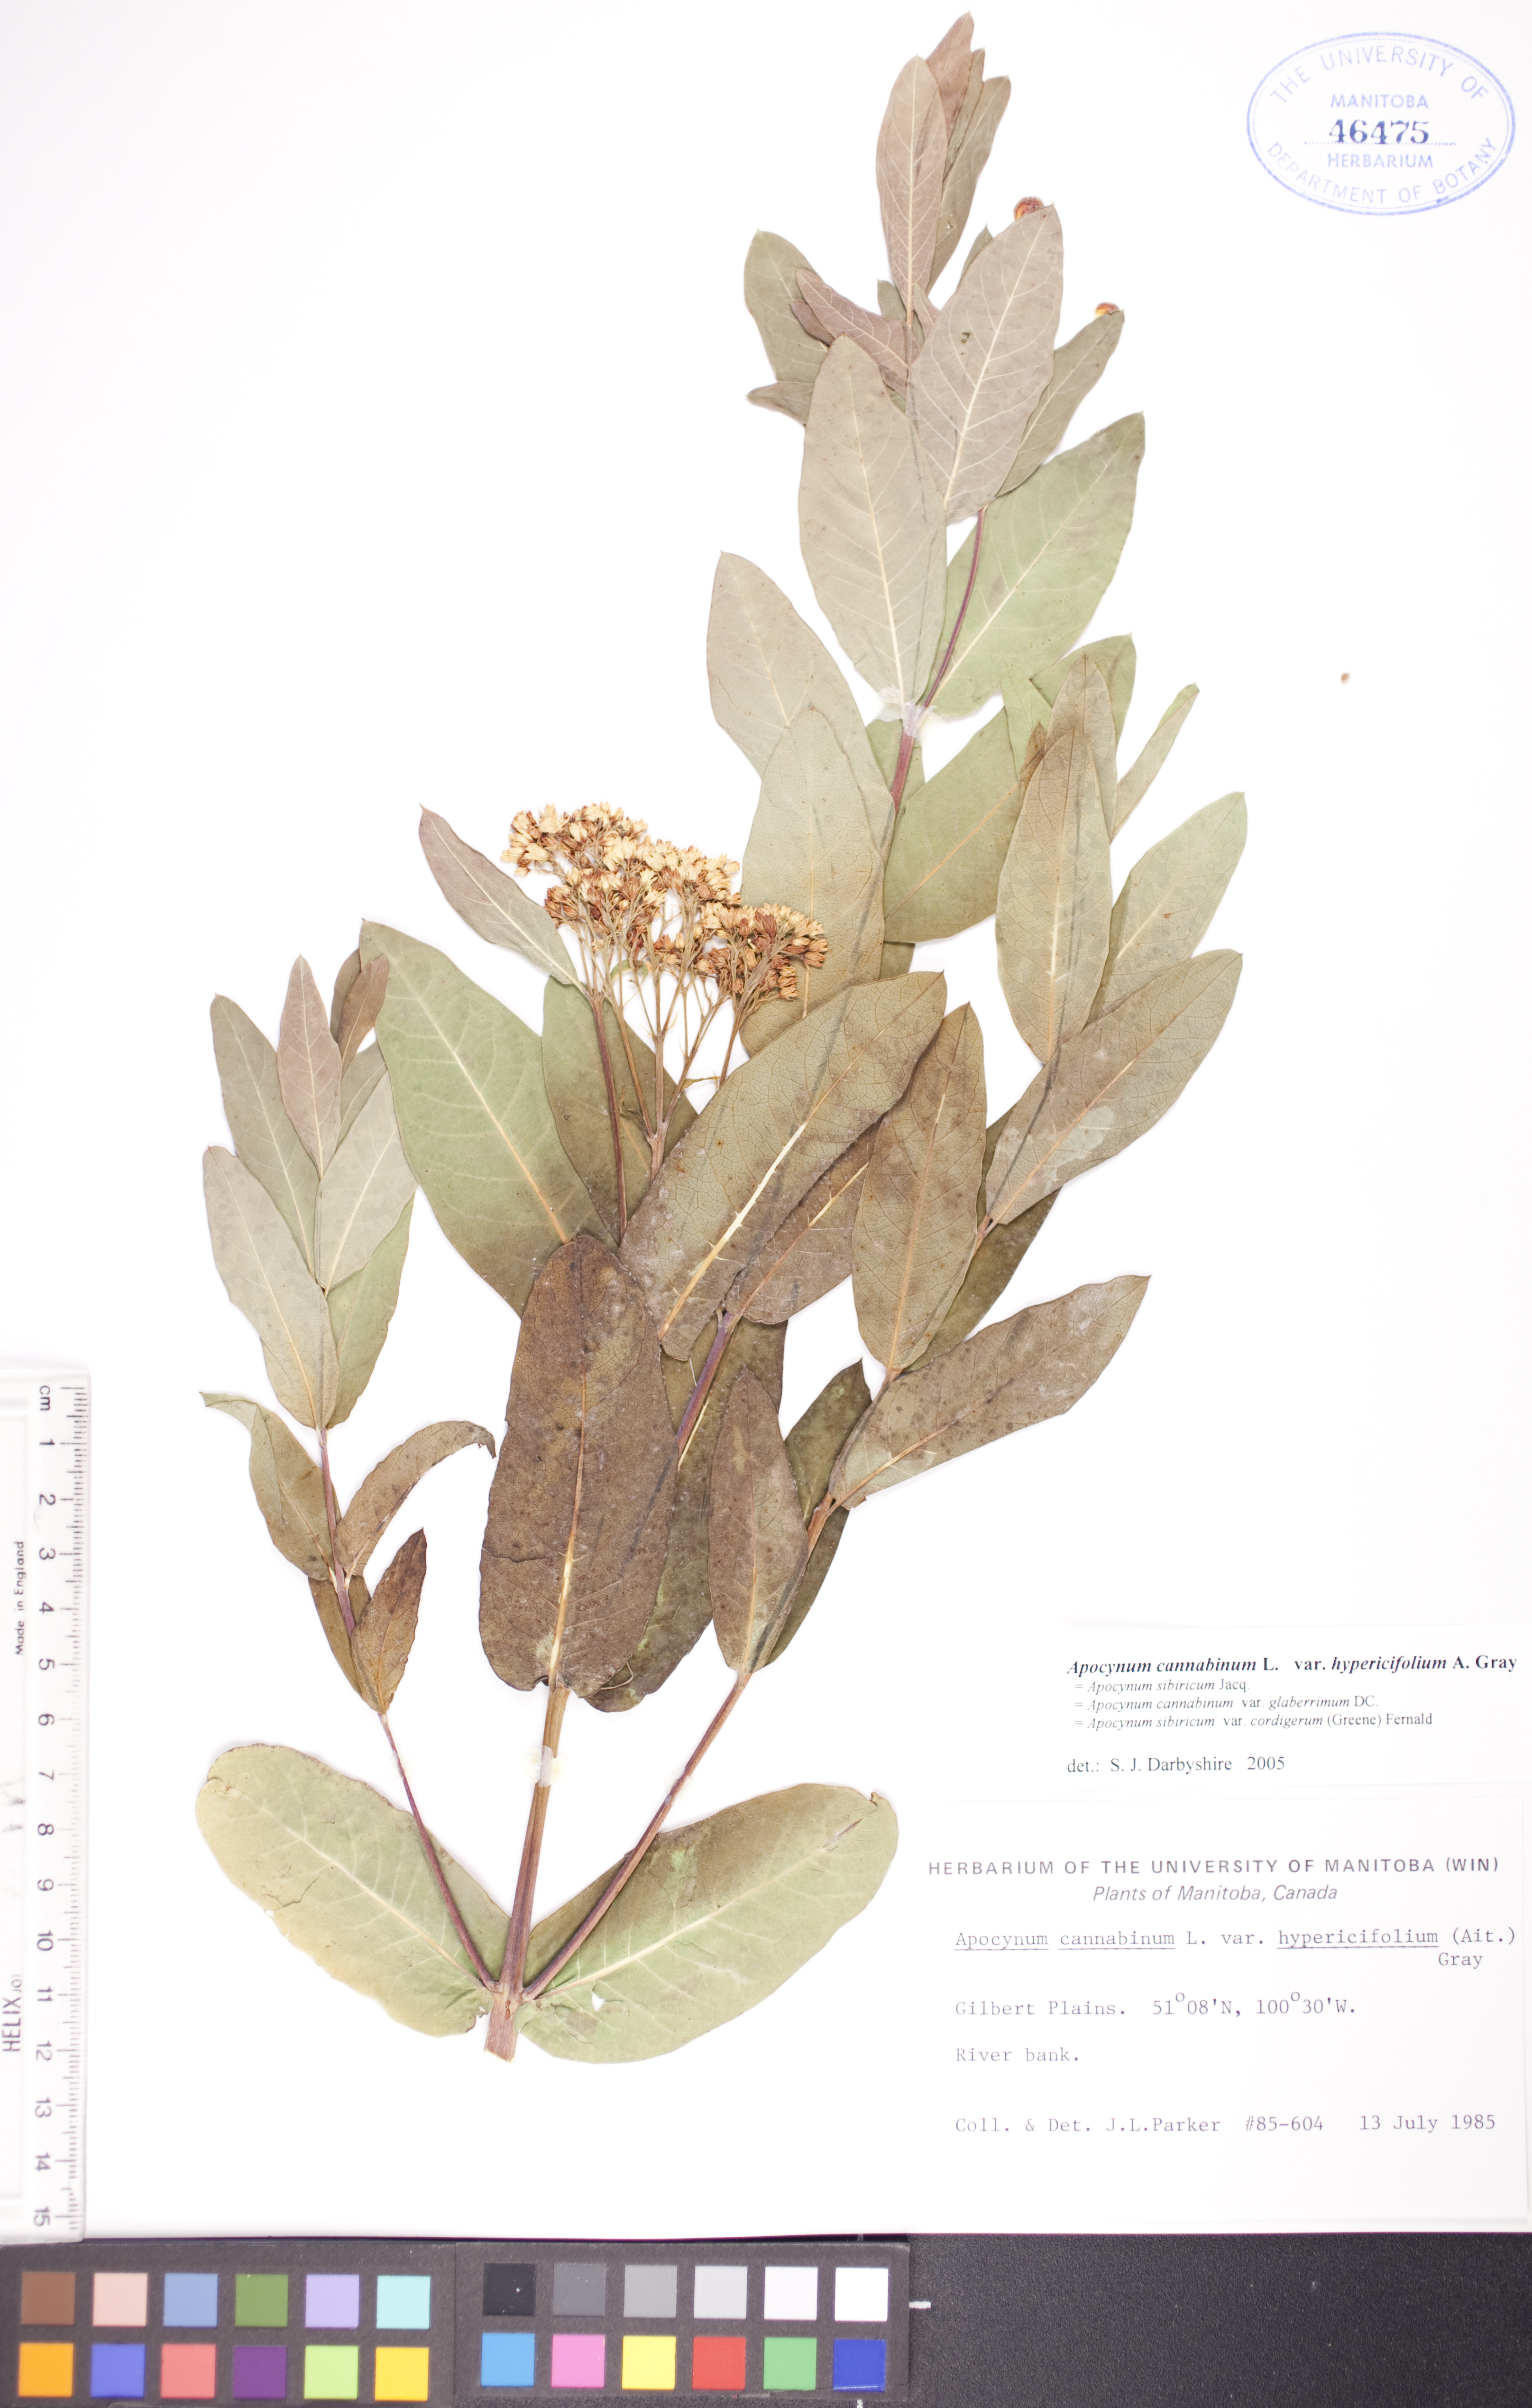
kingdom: Plantae
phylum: Tracheophyta
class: Magnoliopsida
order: Gentianales
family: Apocynaceae
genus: Apocynum
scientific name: Apocynum cannabinum
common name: Hemp dogbane
